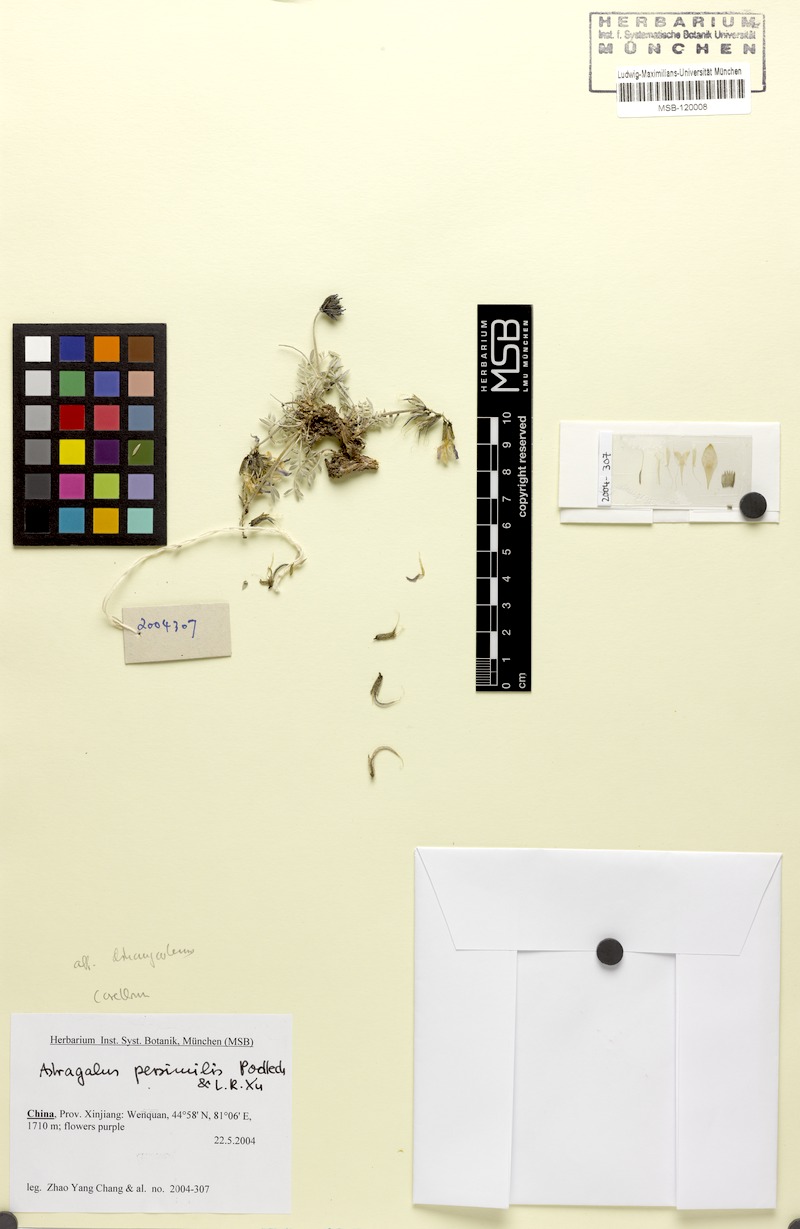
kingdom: Plantae
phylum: Tracheophyta
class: Magnoliopsida
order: Fabales
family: Fabaceae
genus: Astragalus
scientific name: Astragalus persimilis
